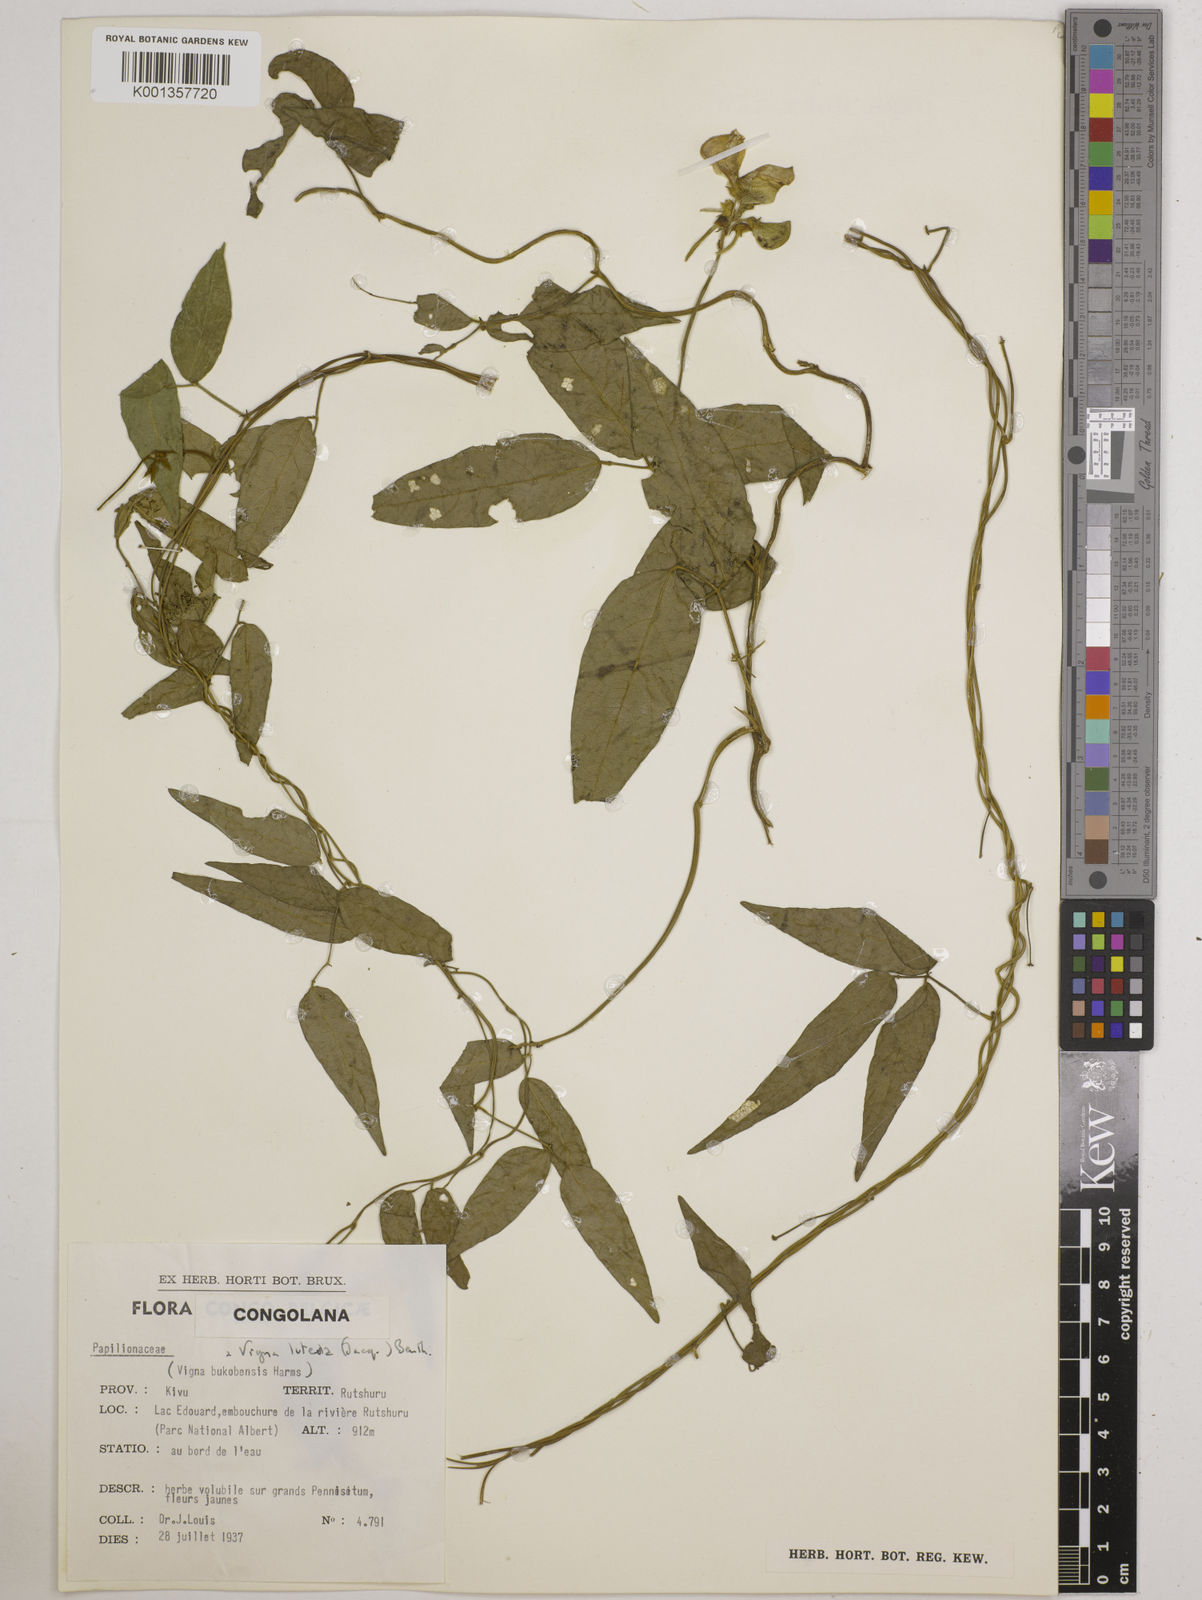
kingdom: Plantae
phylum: Tracheophyta
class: Magnoliopsida
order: Fabales
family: Fabaceae
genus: Vigna
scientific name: Vigna luteola
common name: Hairypod cowpea
